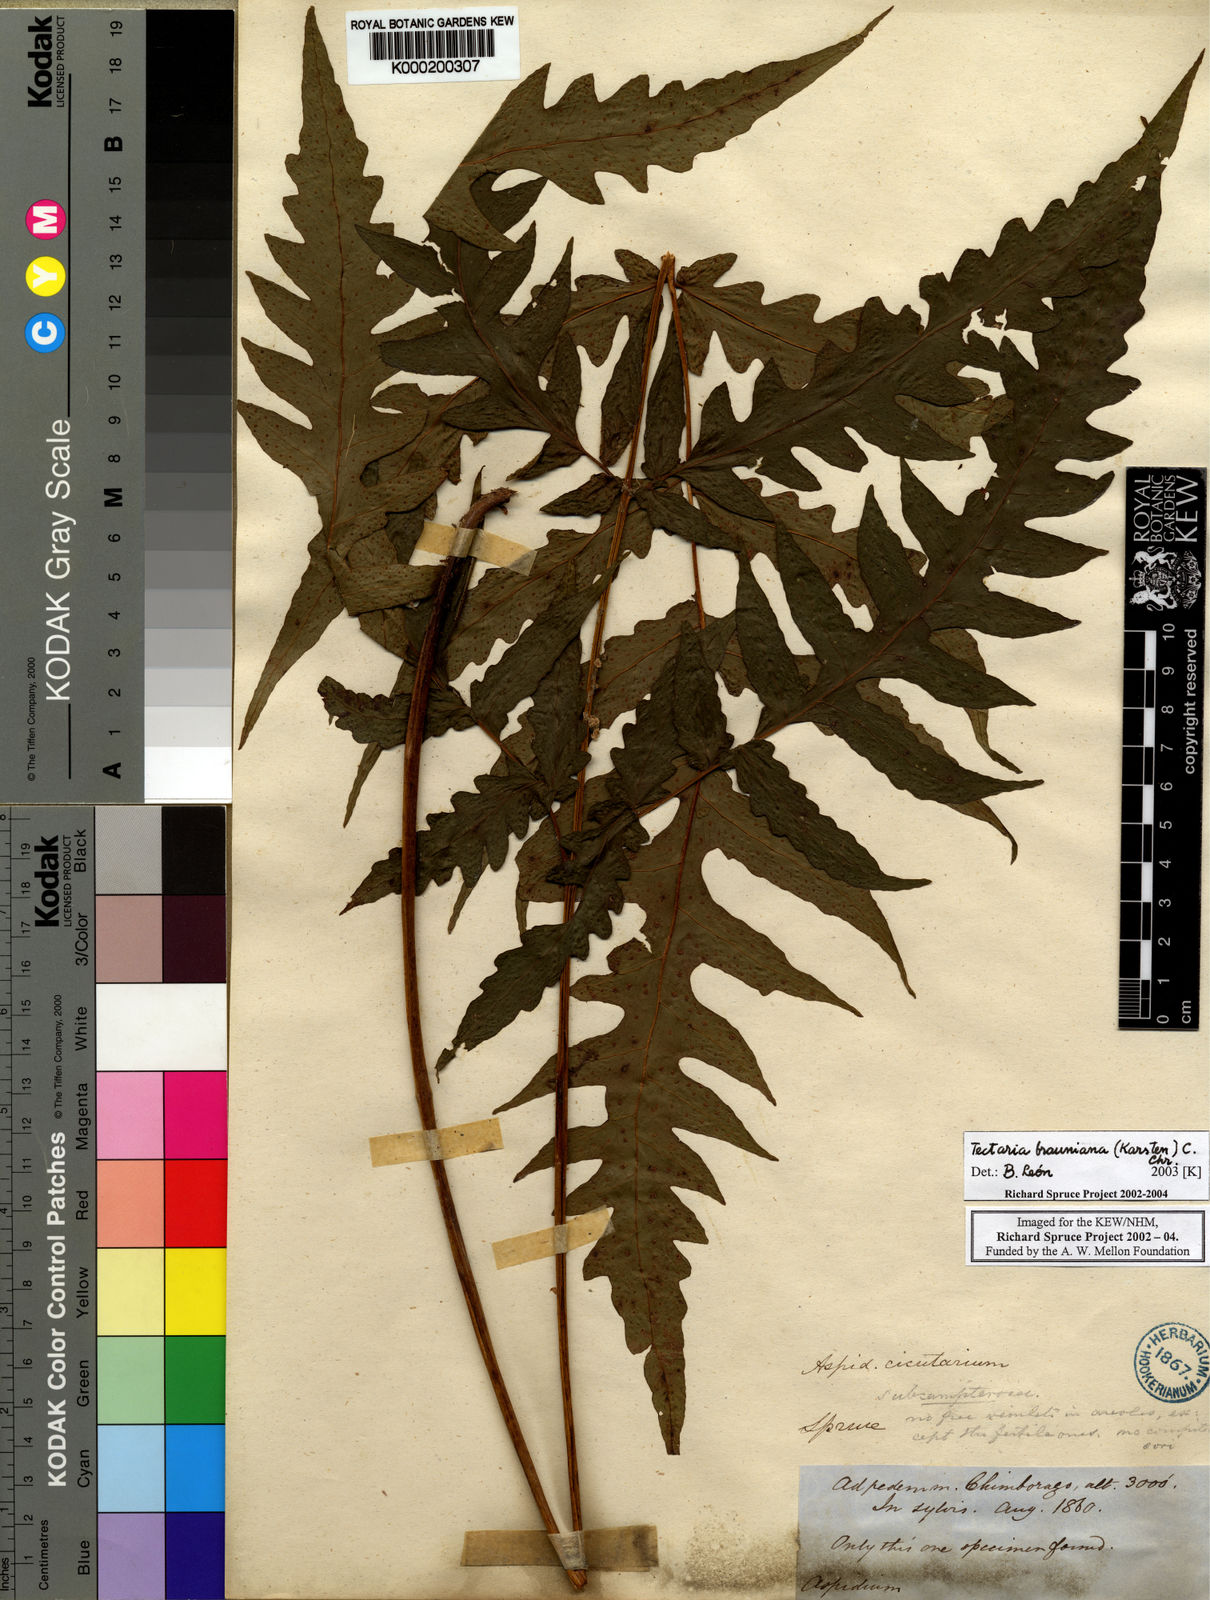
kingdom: Plantae
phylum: Tracheophyta
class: Polypodiopsida
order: Polypodiales
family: Tectariaceae
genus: Hypoderris
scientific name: Hypoderris brauniana
